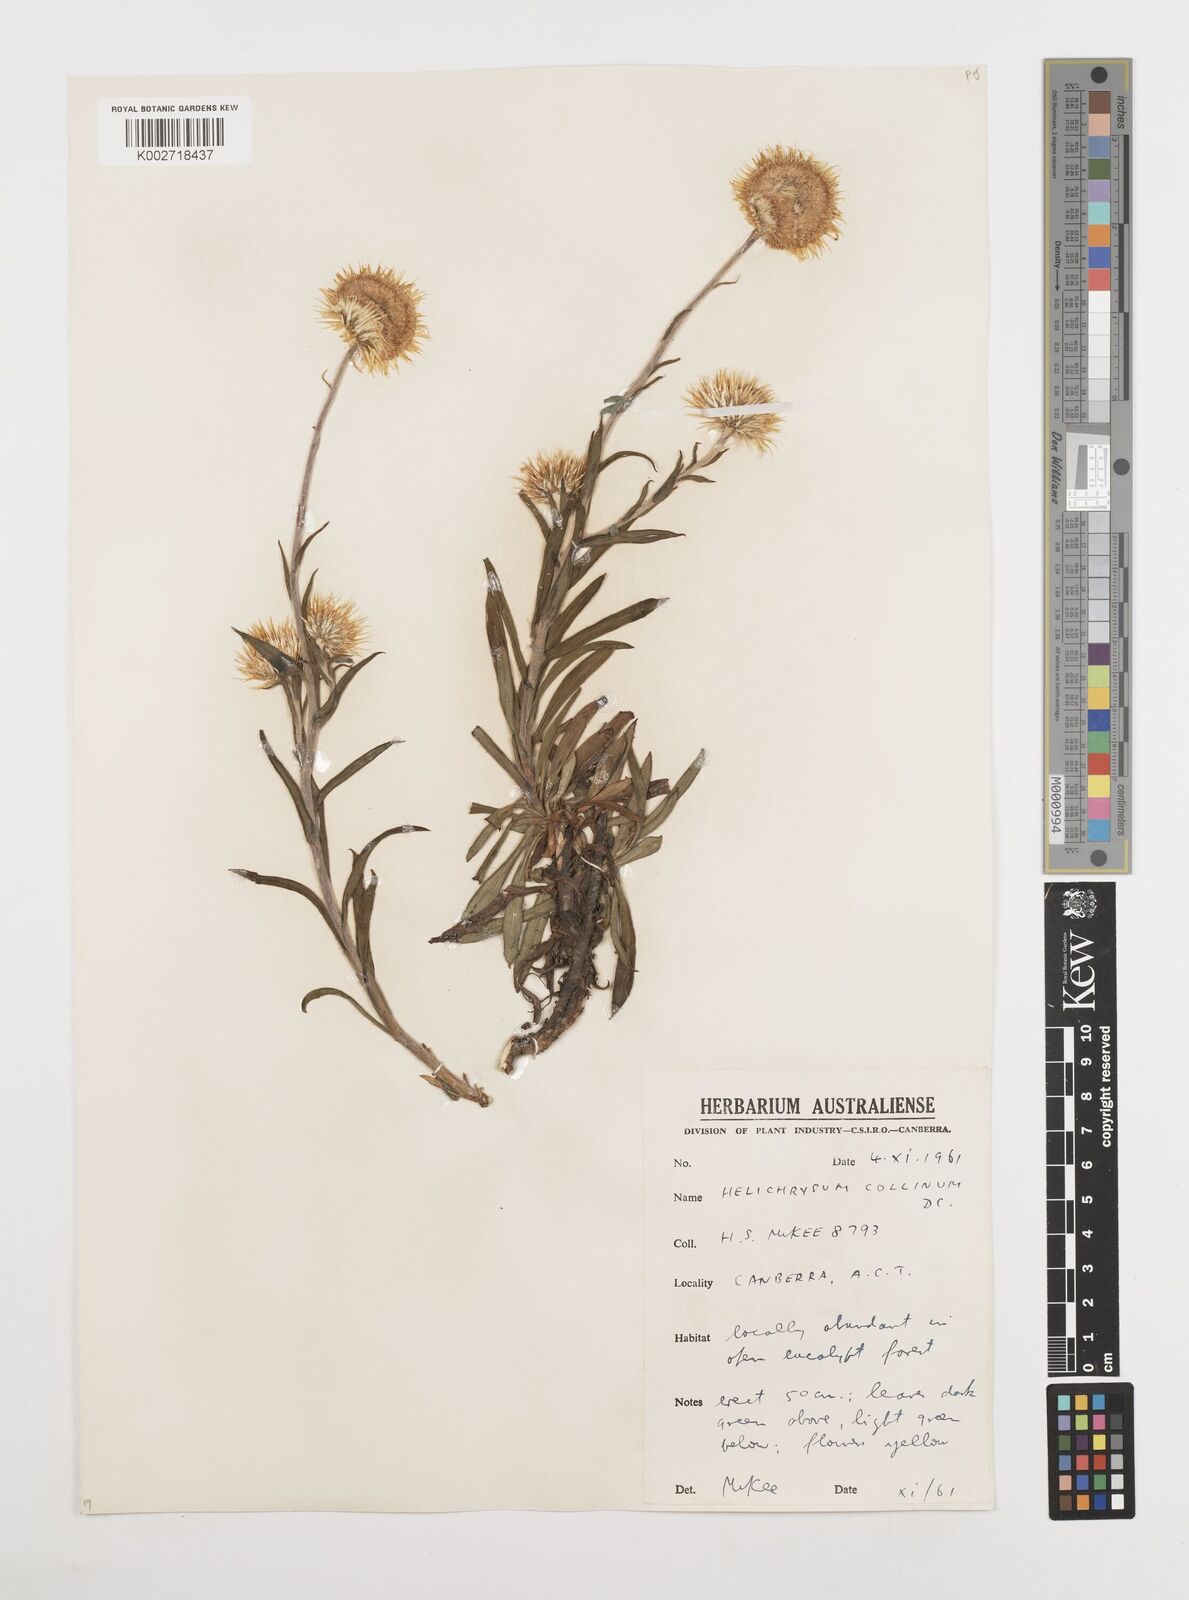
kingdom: Plantae
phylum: Tracheophyta
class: Magnoliopsida
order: Asterales
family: Asteraceae
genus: Coronidium
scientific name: Coronidium rupicola
